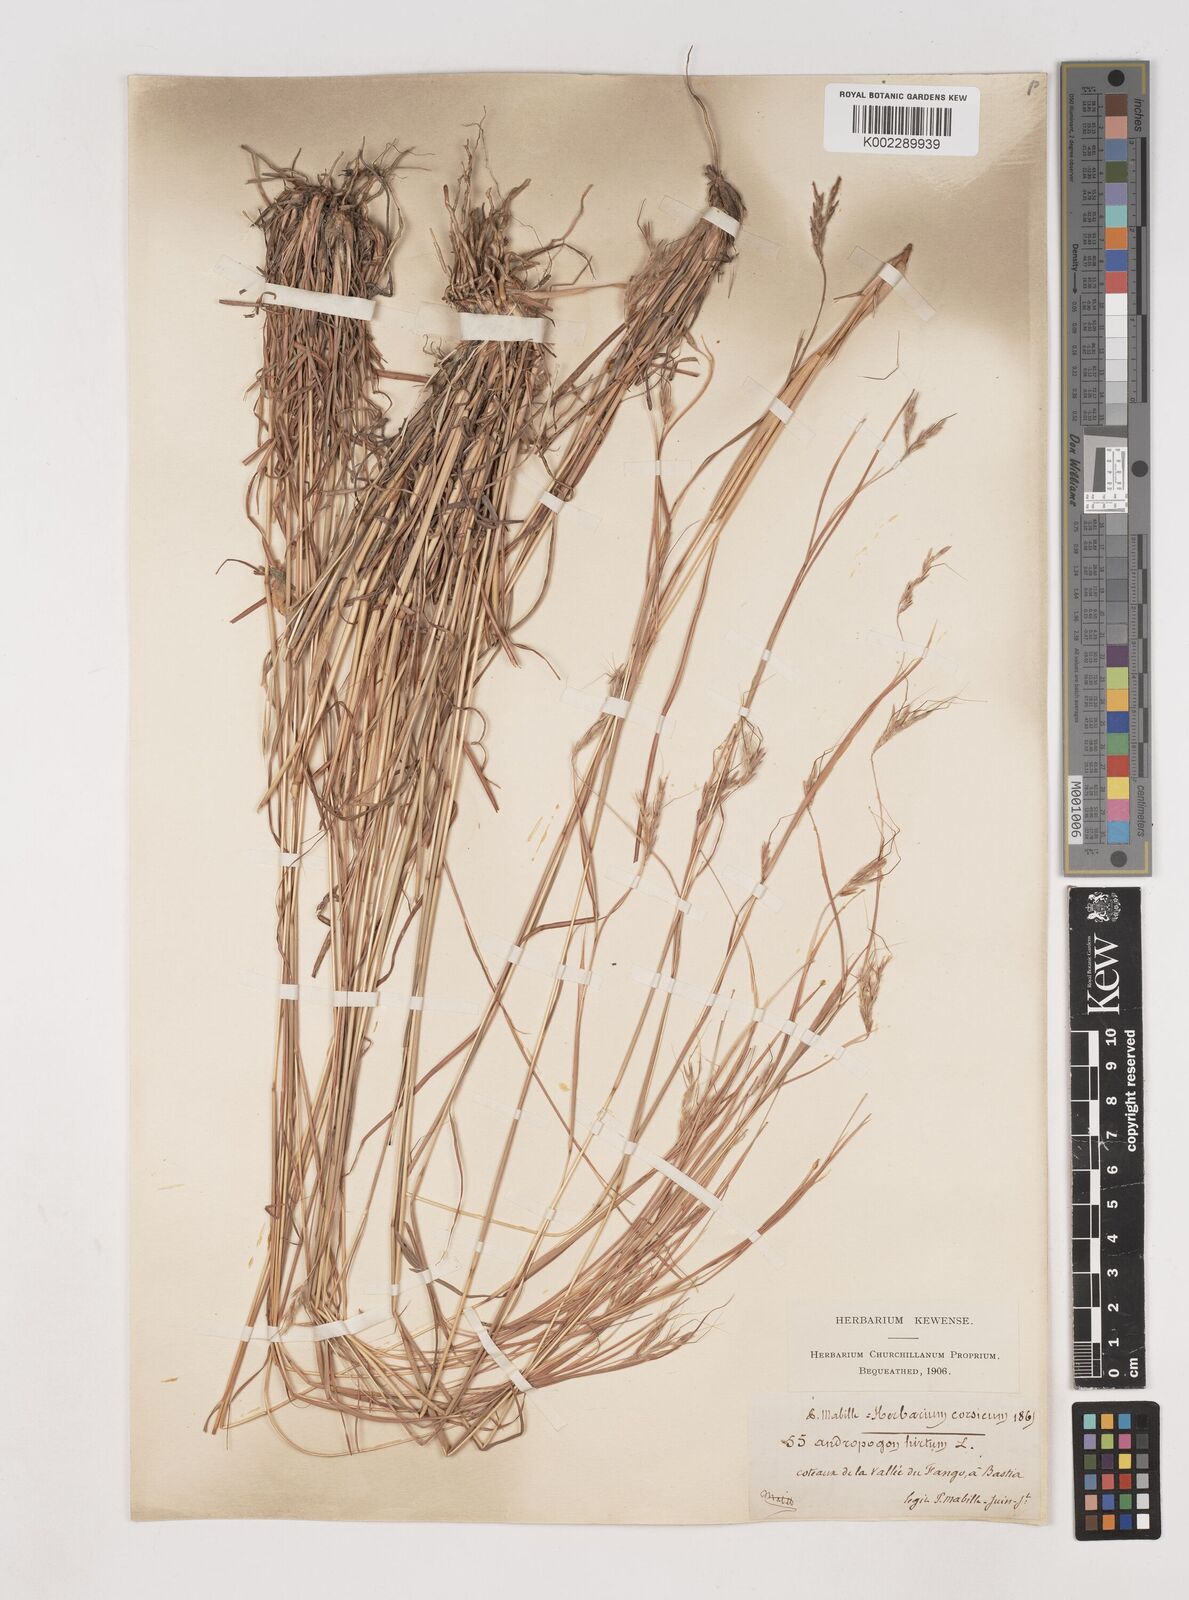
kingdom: Plantae
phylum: Tracheophyta
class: Liliopsida
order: Poales
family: Poaceae
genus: Hyparrhenia
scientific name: Hyparrhenia hirta
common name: Thatching grass
